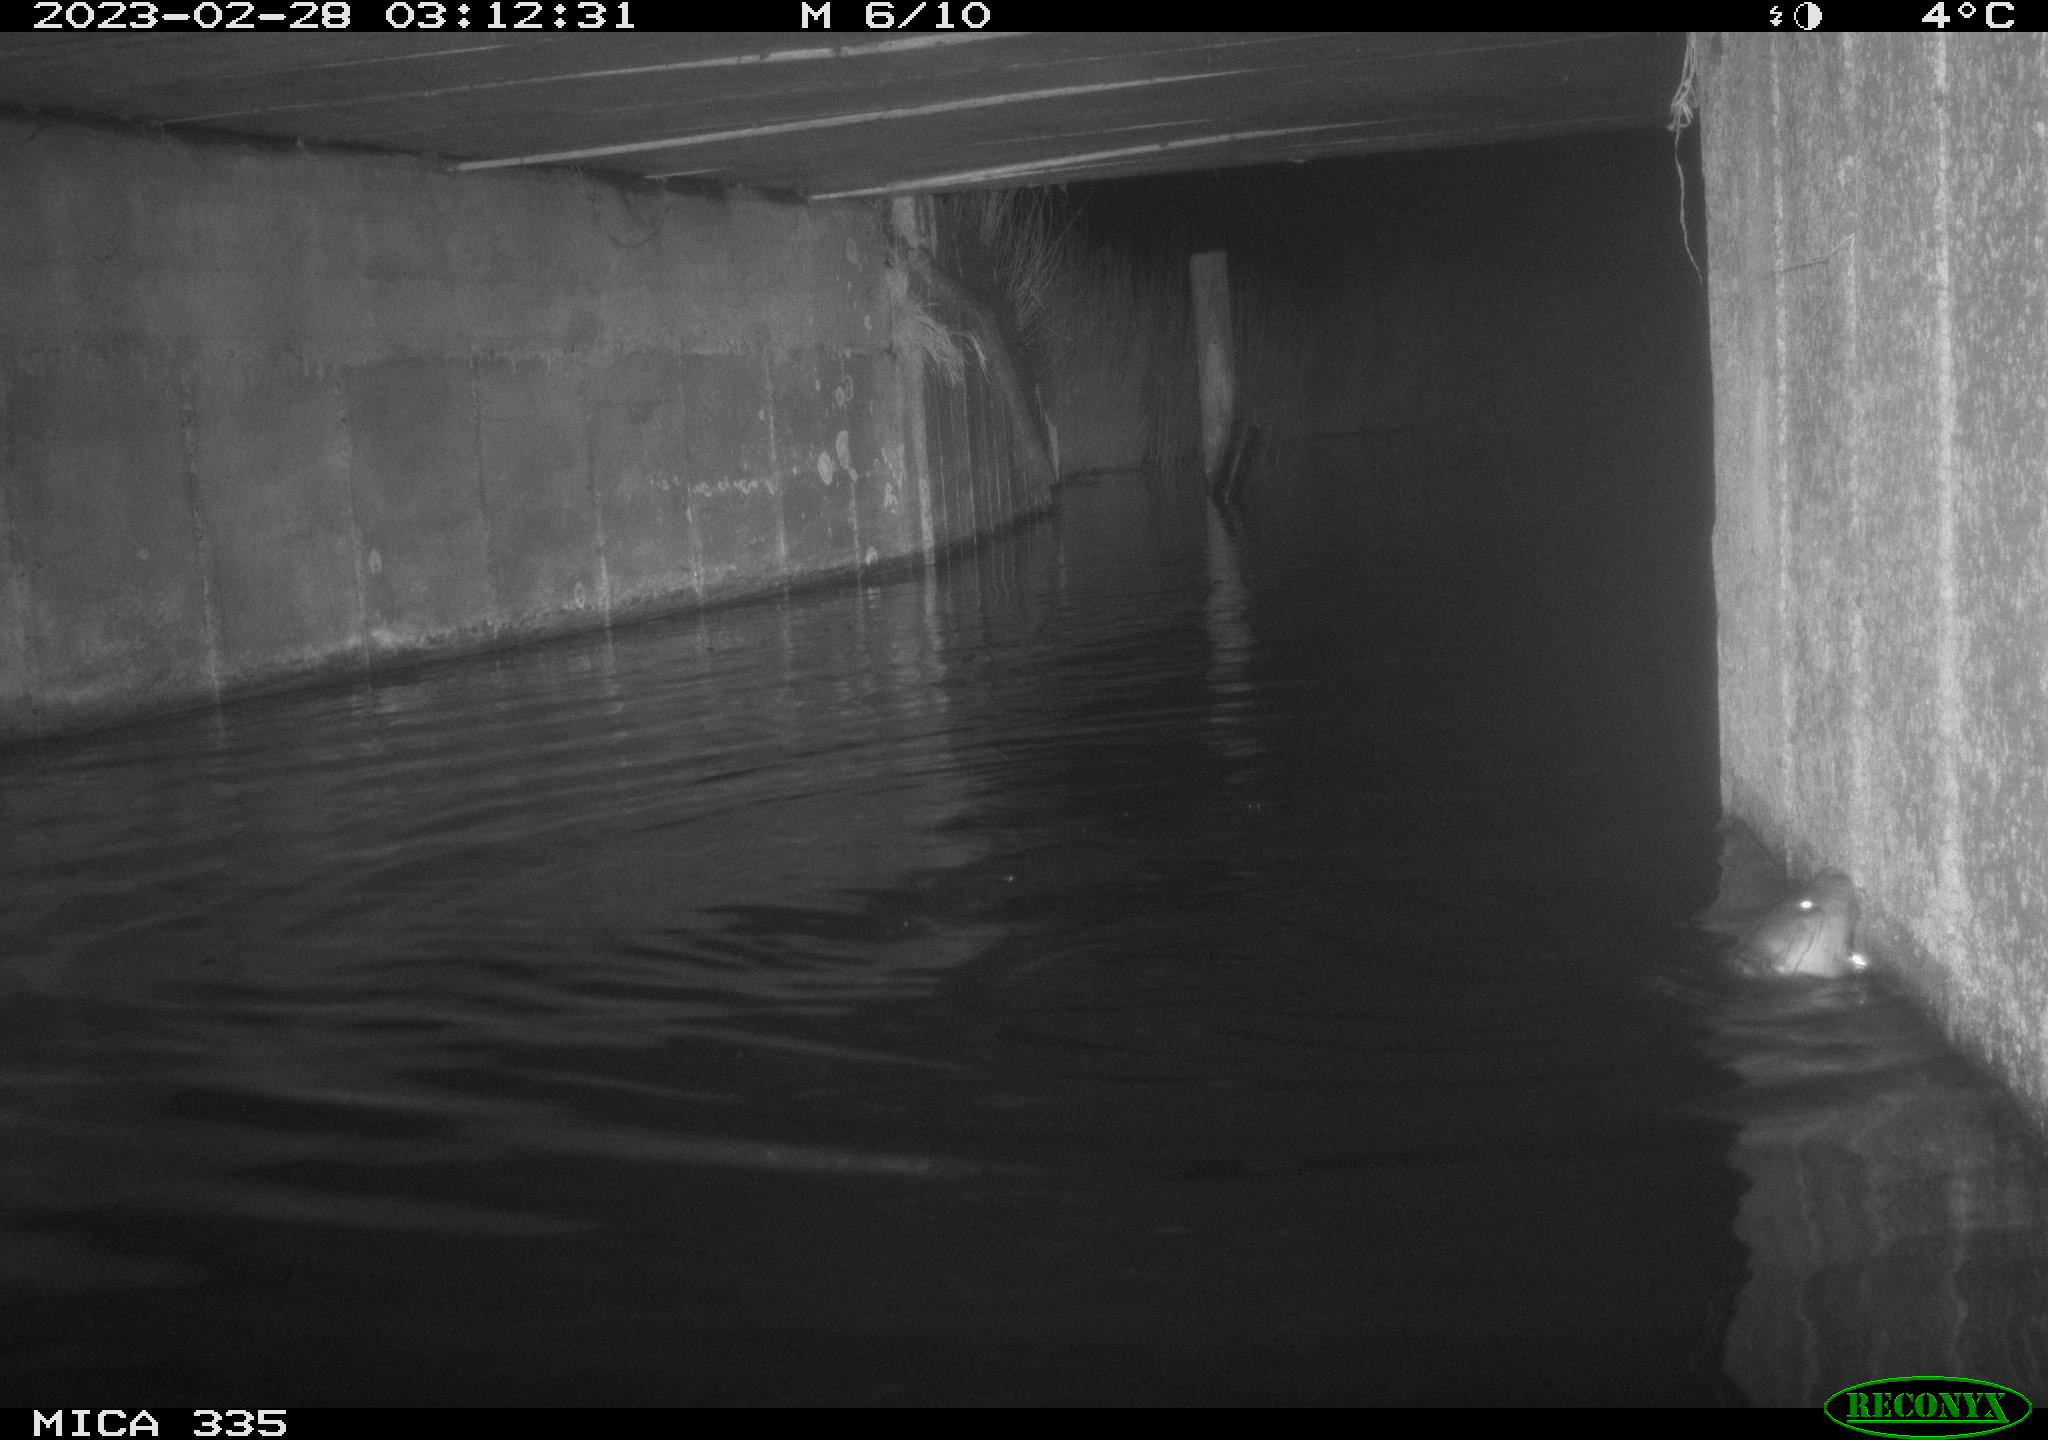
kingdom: Animalia
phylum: Chordata
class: Mammalia
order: Carnivora
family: Mustelidae
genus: Lutra
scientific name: Lutra lutra
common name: European otter
